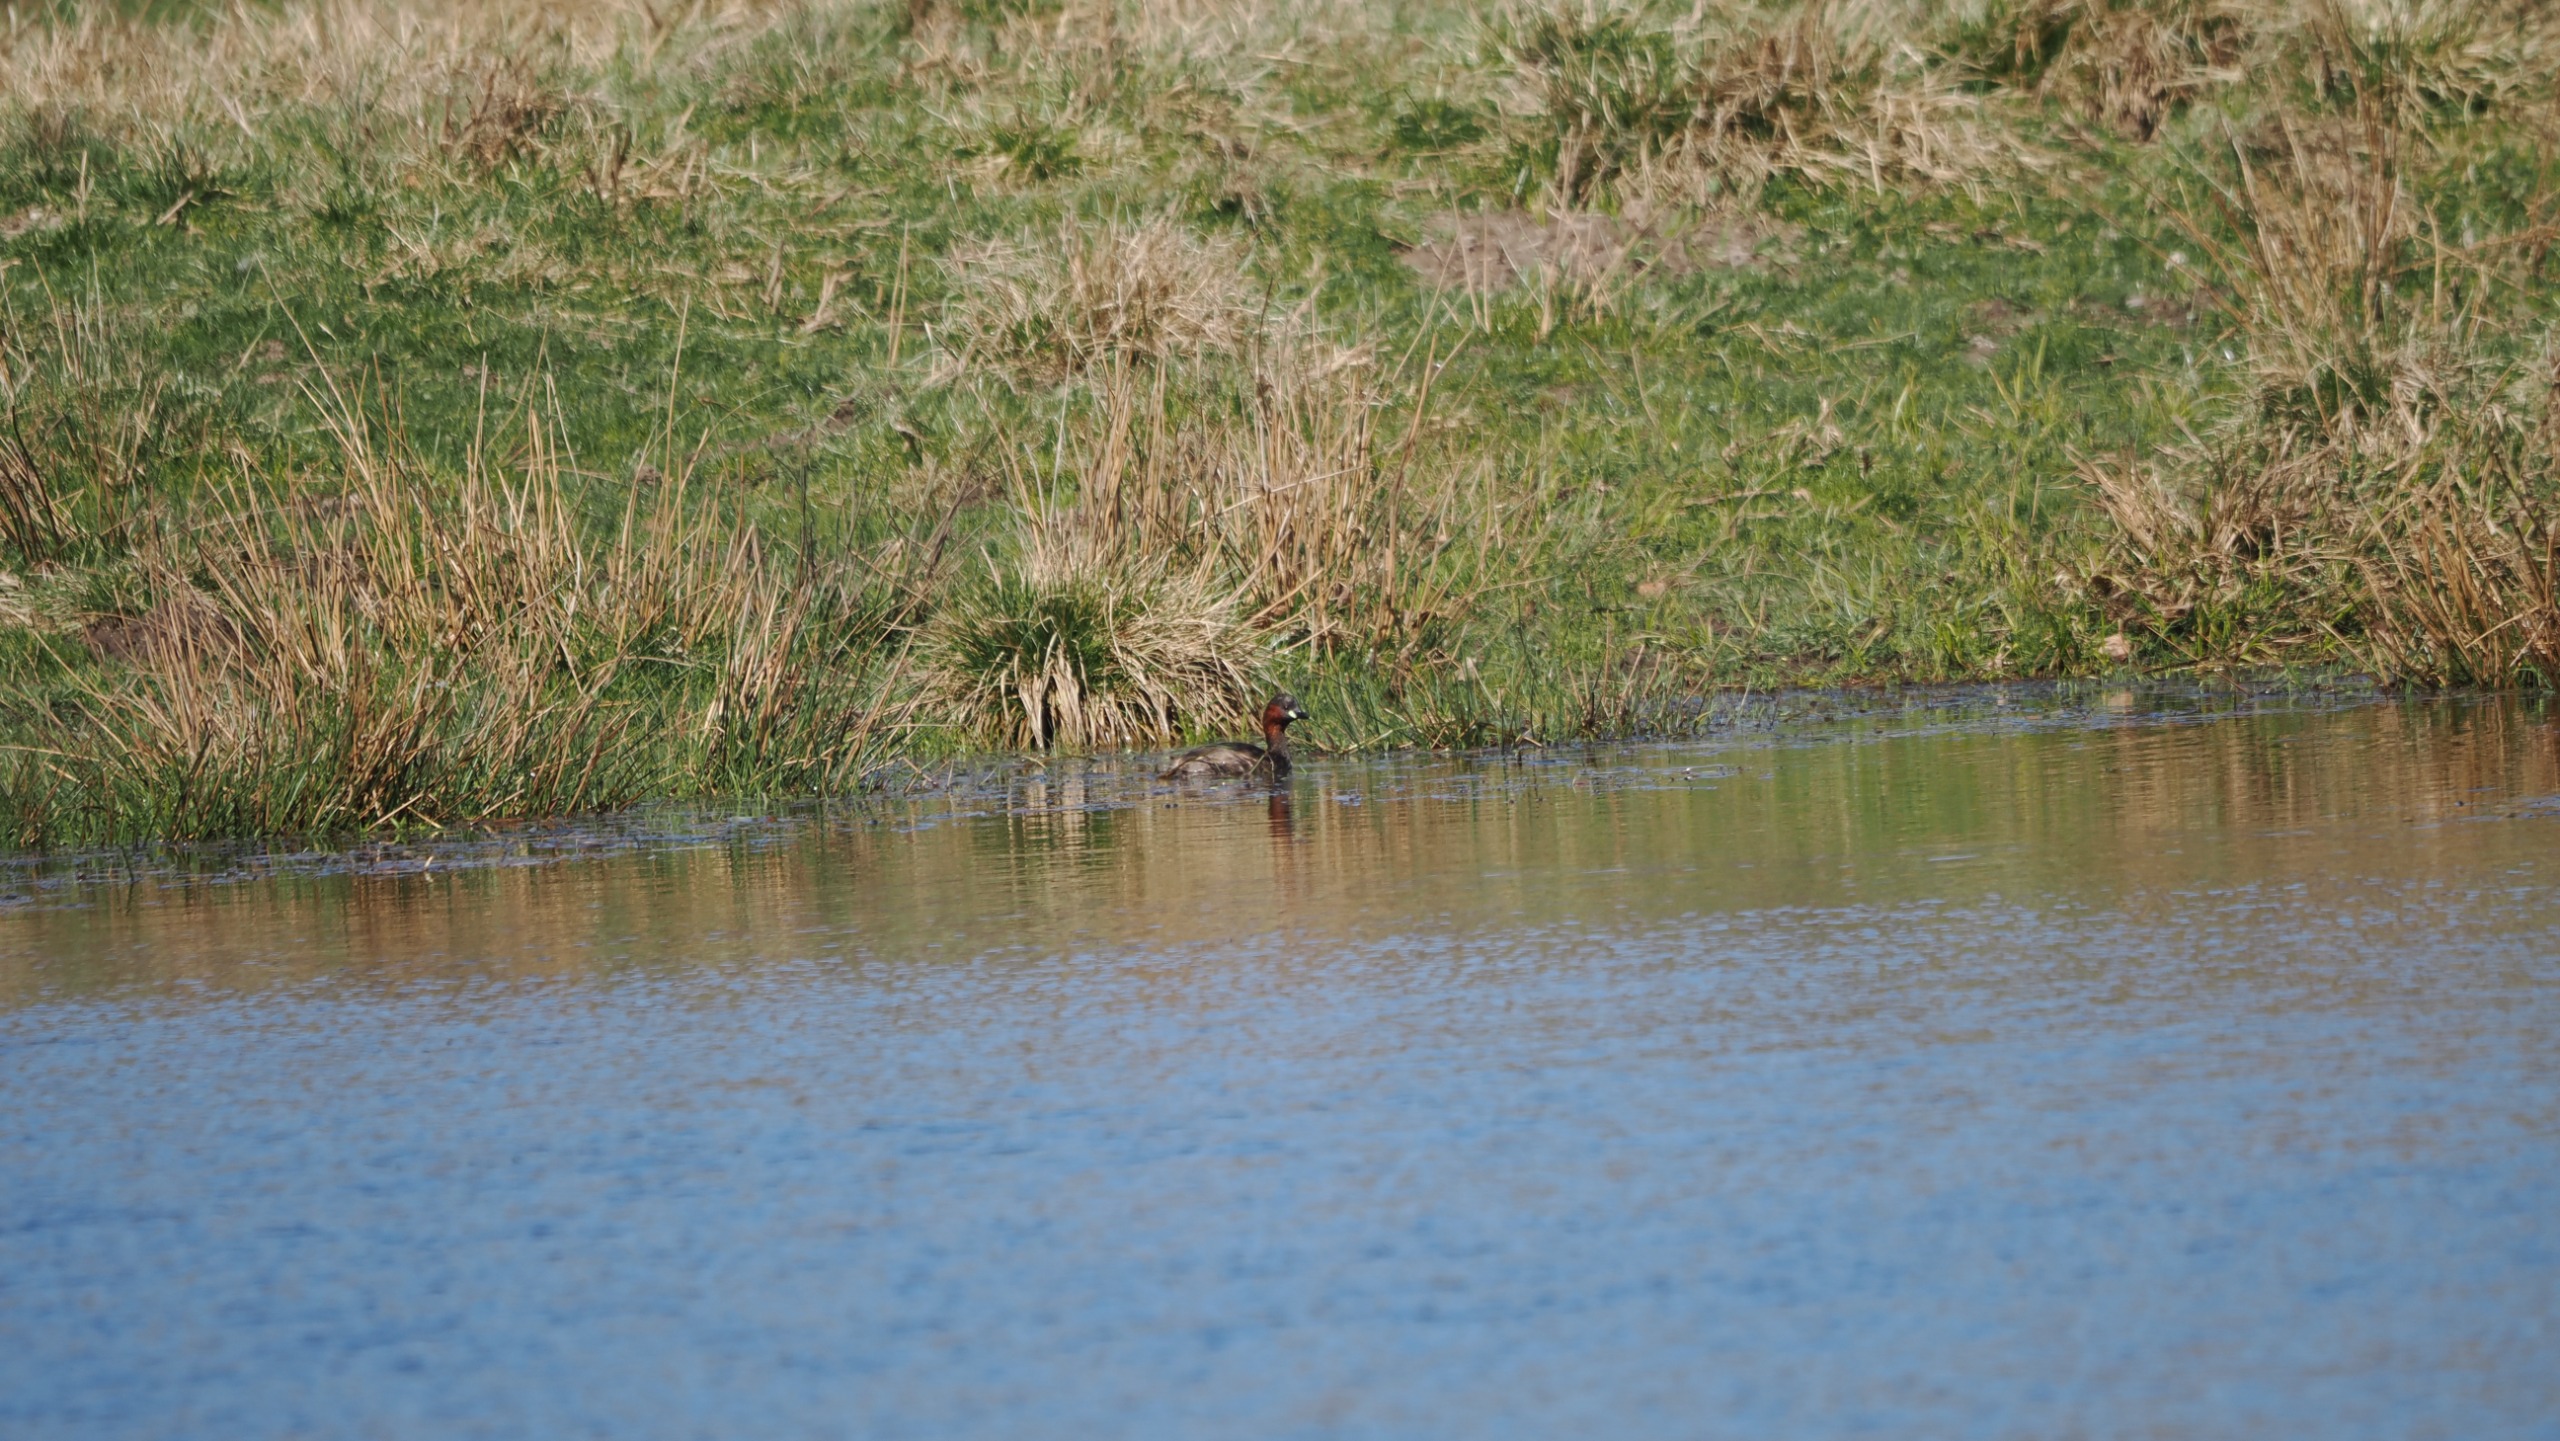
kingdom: Animalia
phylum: Chordata
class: Aves
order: Podicipediformes
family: Podicipedidae
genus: Tachybaptus
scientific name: Tachybaptus ruficollis
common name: Lille lappedykker
